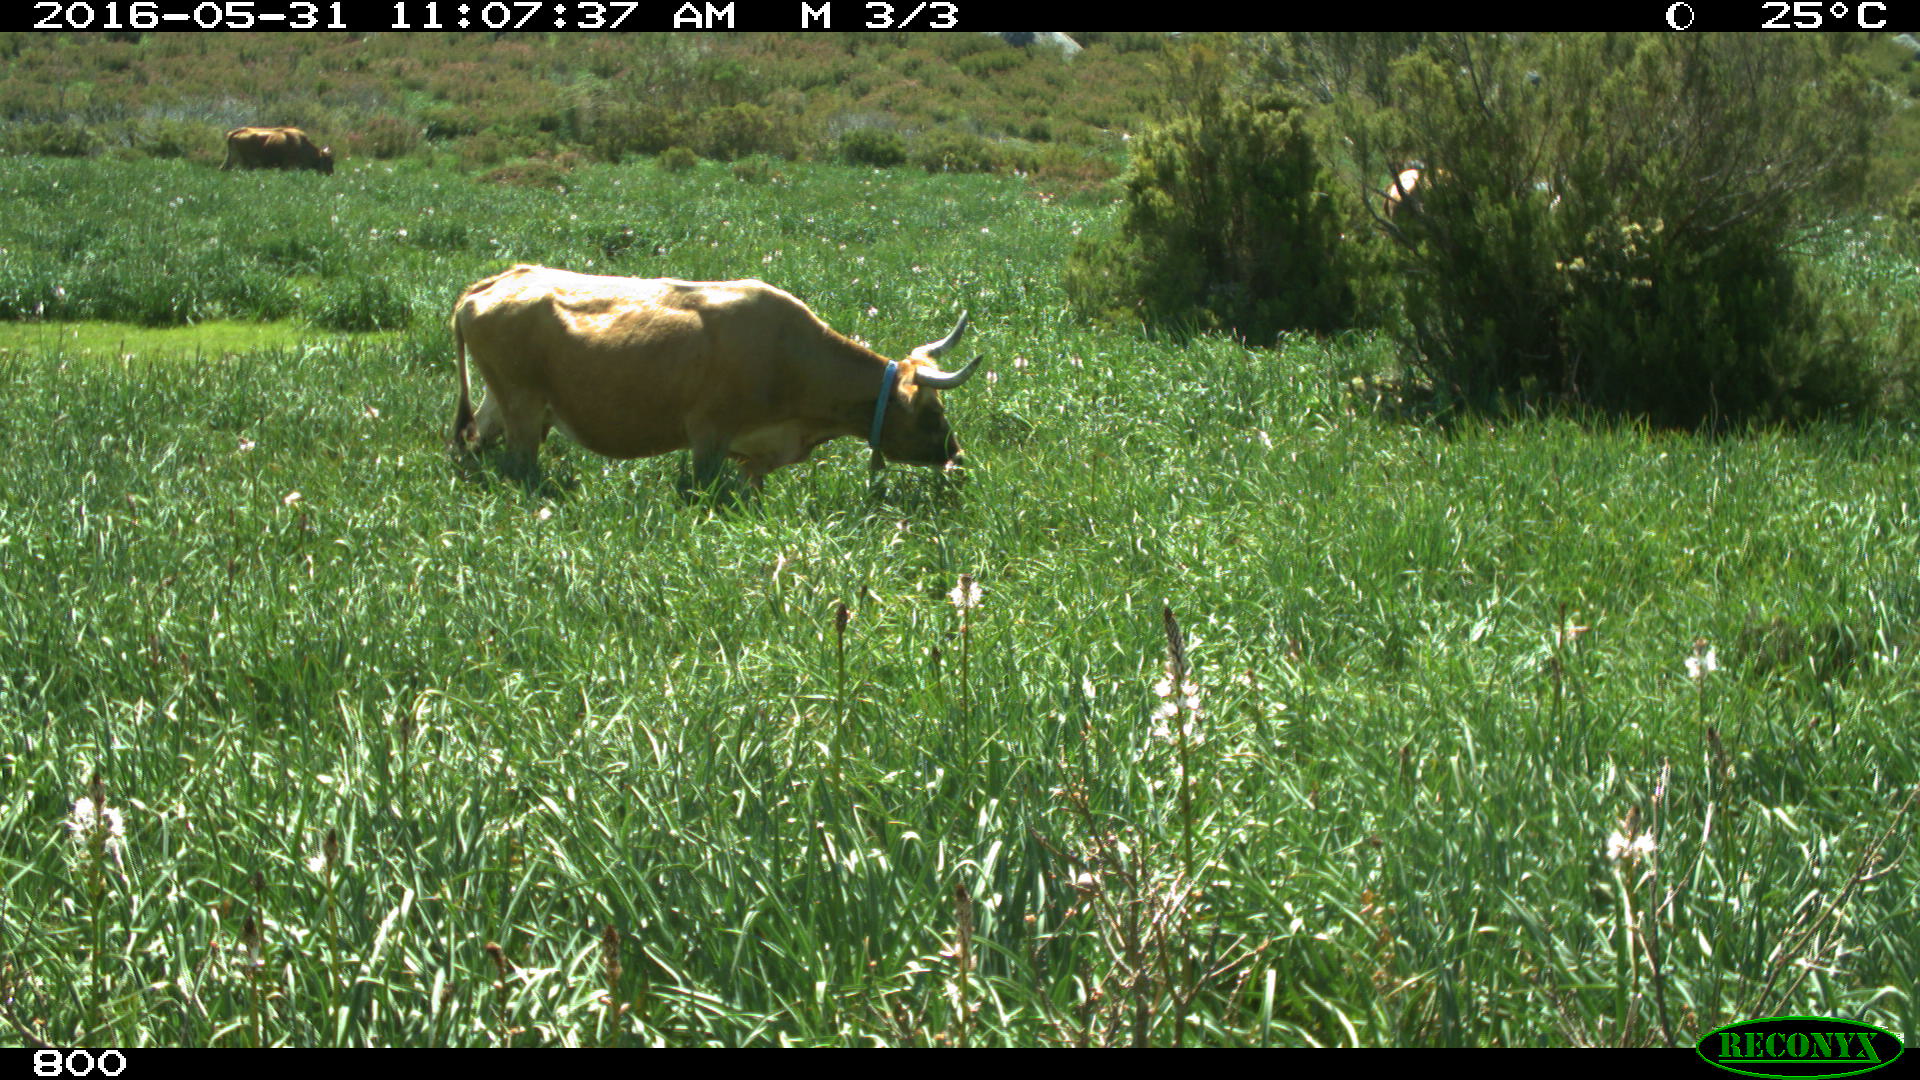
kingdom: Animalia
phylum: Chordata
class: Mammalia
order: Artiodactyla
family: Bovidae
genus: Bos
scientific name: Bos taurus
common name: Domesticated cattle
